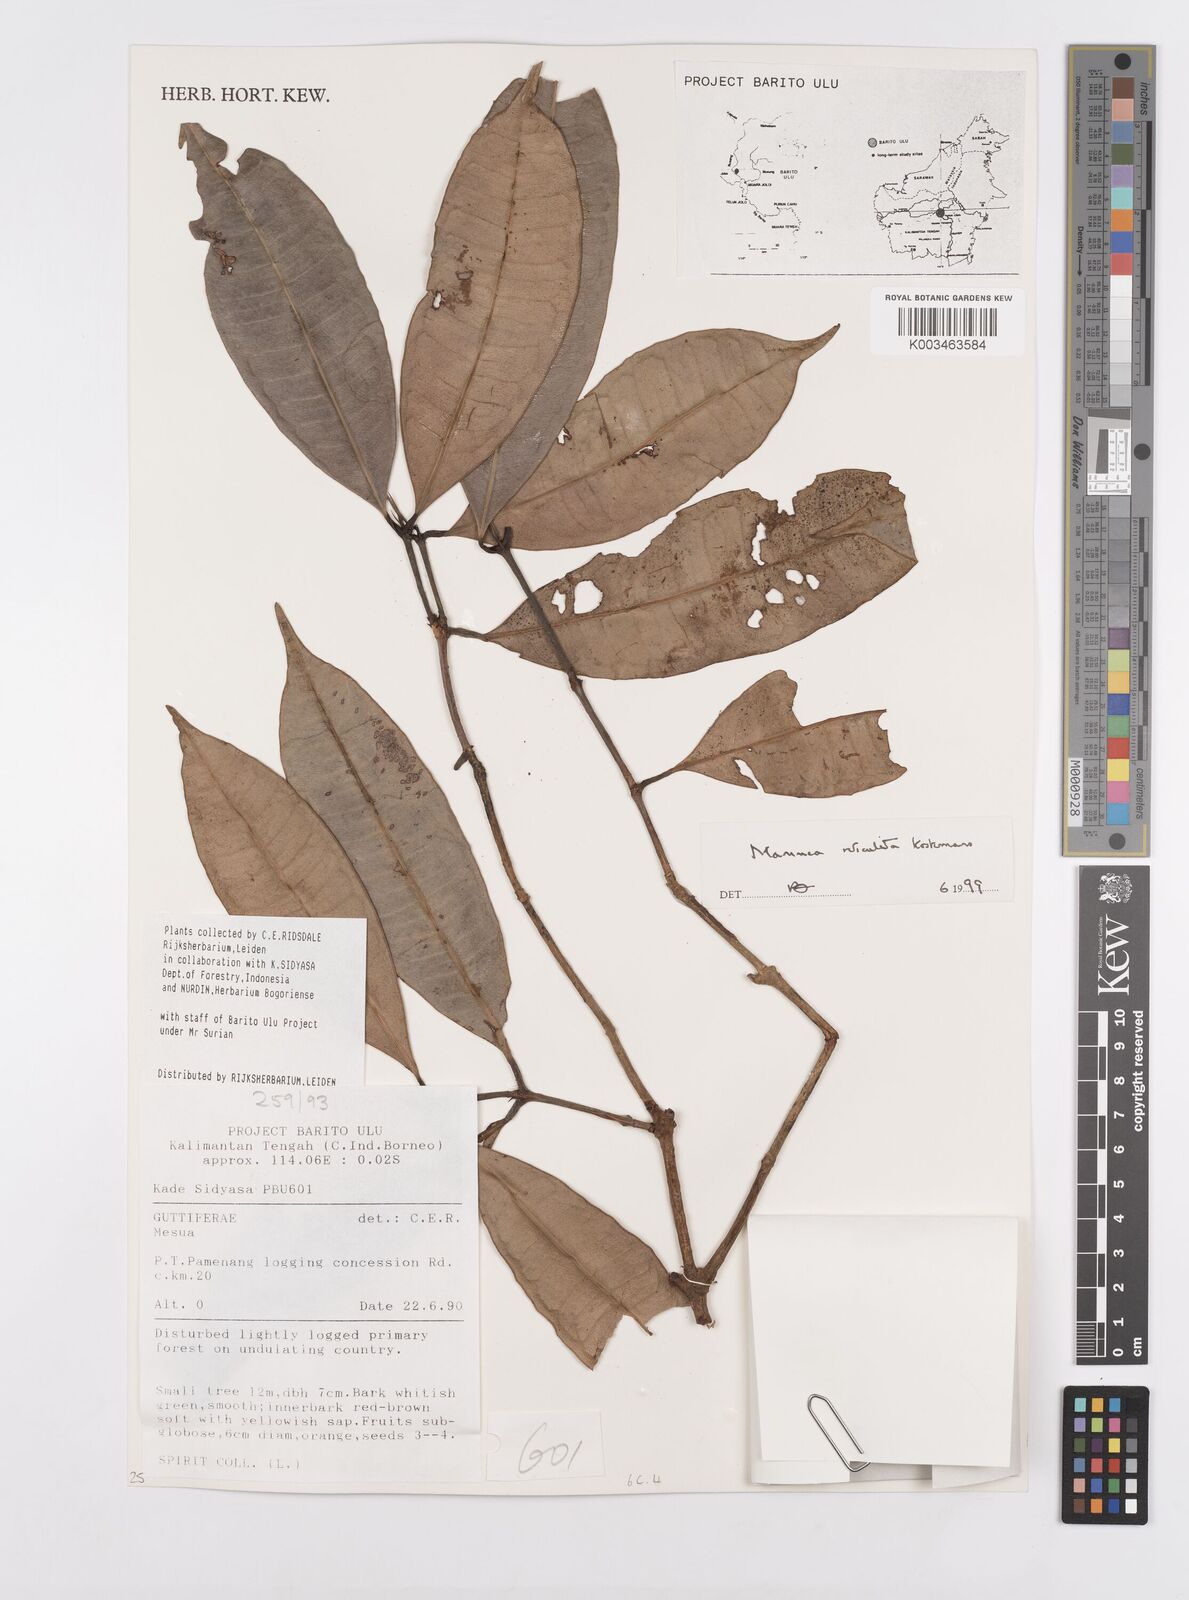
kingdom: Plantae
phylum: Tracheophyta
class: Magnoliopsida
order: Malpighiales
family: Calophyllaceae
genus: Mammea
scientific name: Mammea reticulata
